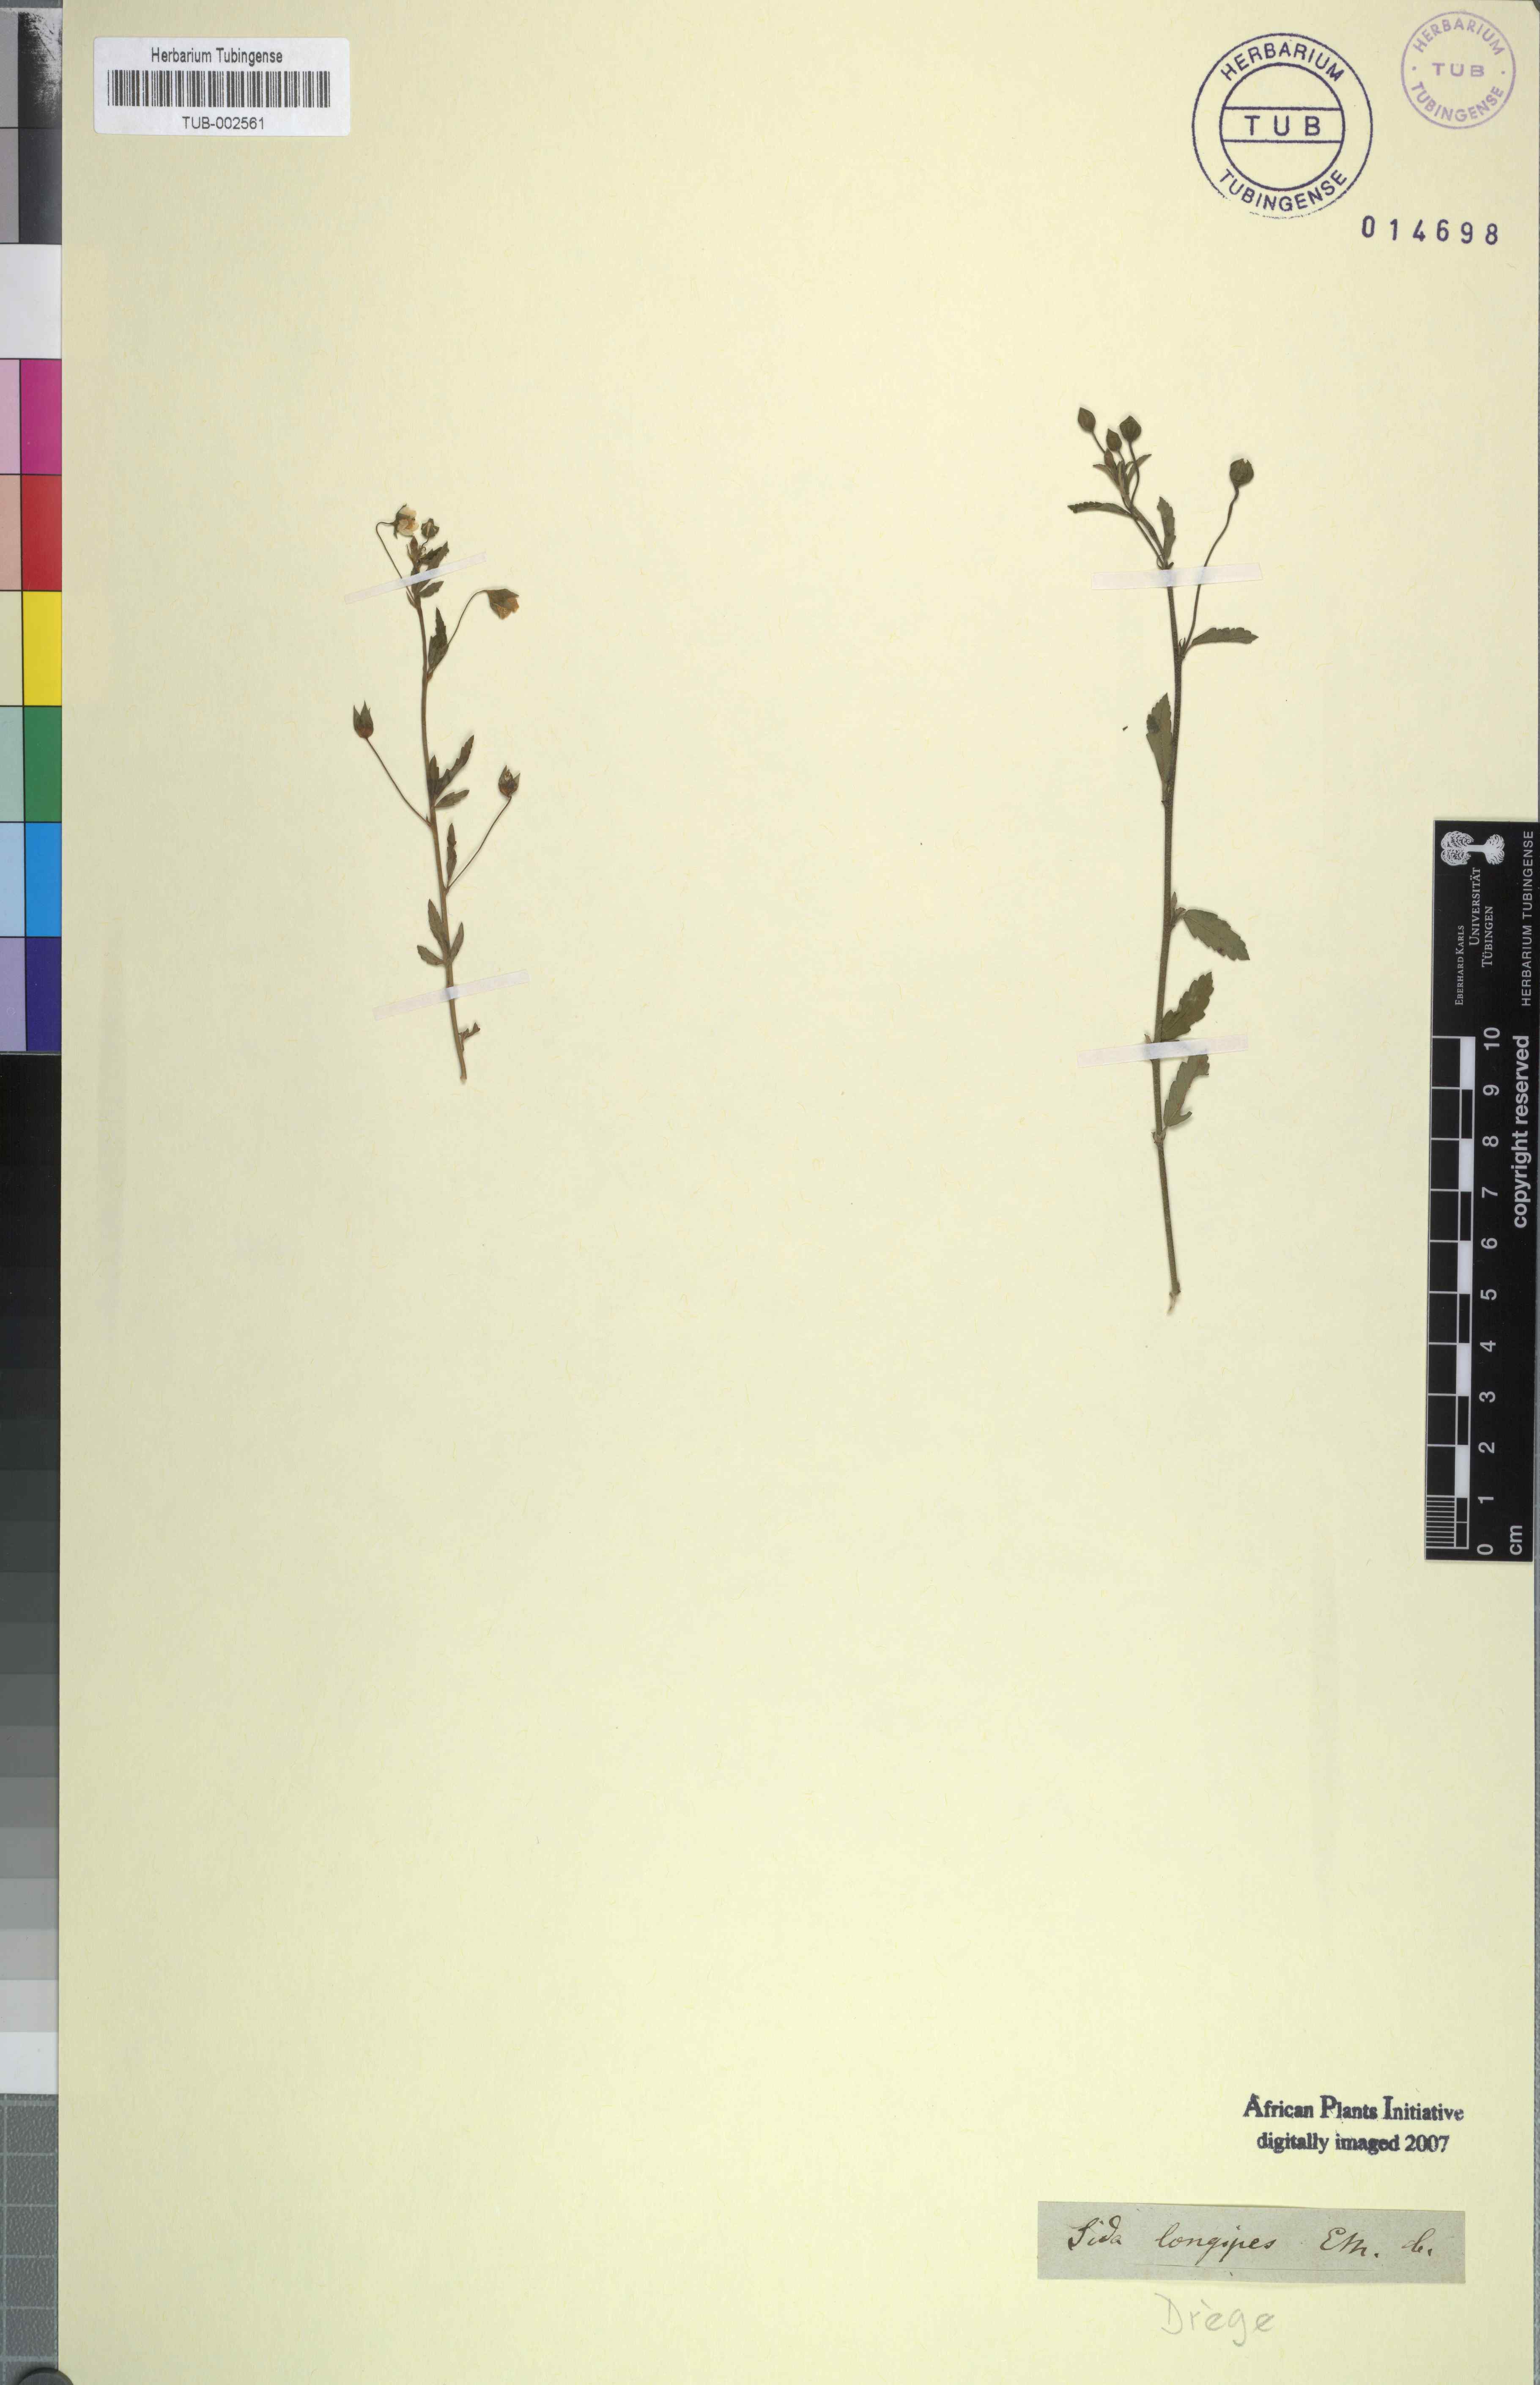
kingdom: Plantae
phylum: Tracheophyta
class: Magnoliopsida
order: Malvales
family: Malvaceae
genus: Sida
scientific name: Sida acuta
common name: Common wireweed
